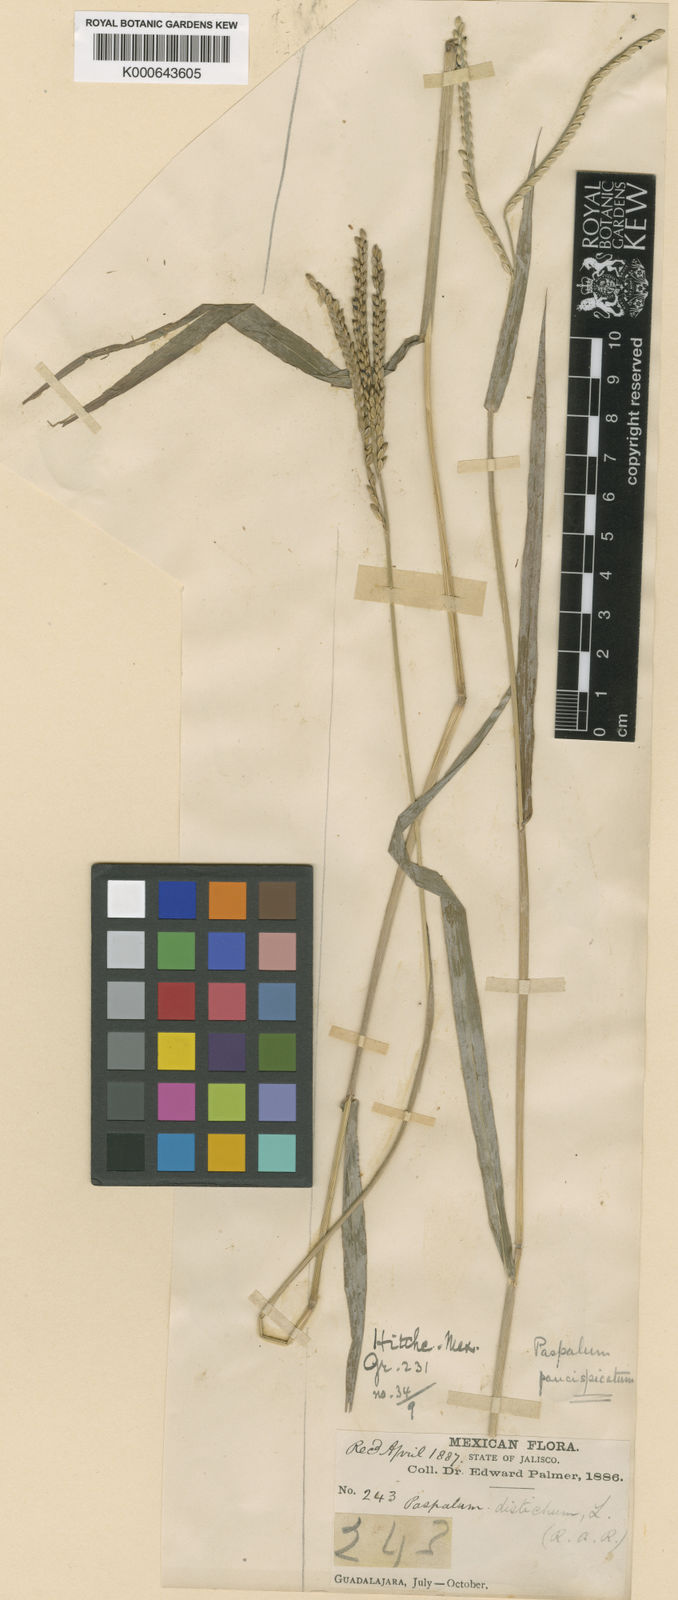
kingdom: Plantae
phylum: Tracheophyta
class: Liliopsida
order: Poales
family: Poaceae
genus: Paspalum
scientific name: Paspalum distichum
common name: Knotgrass
